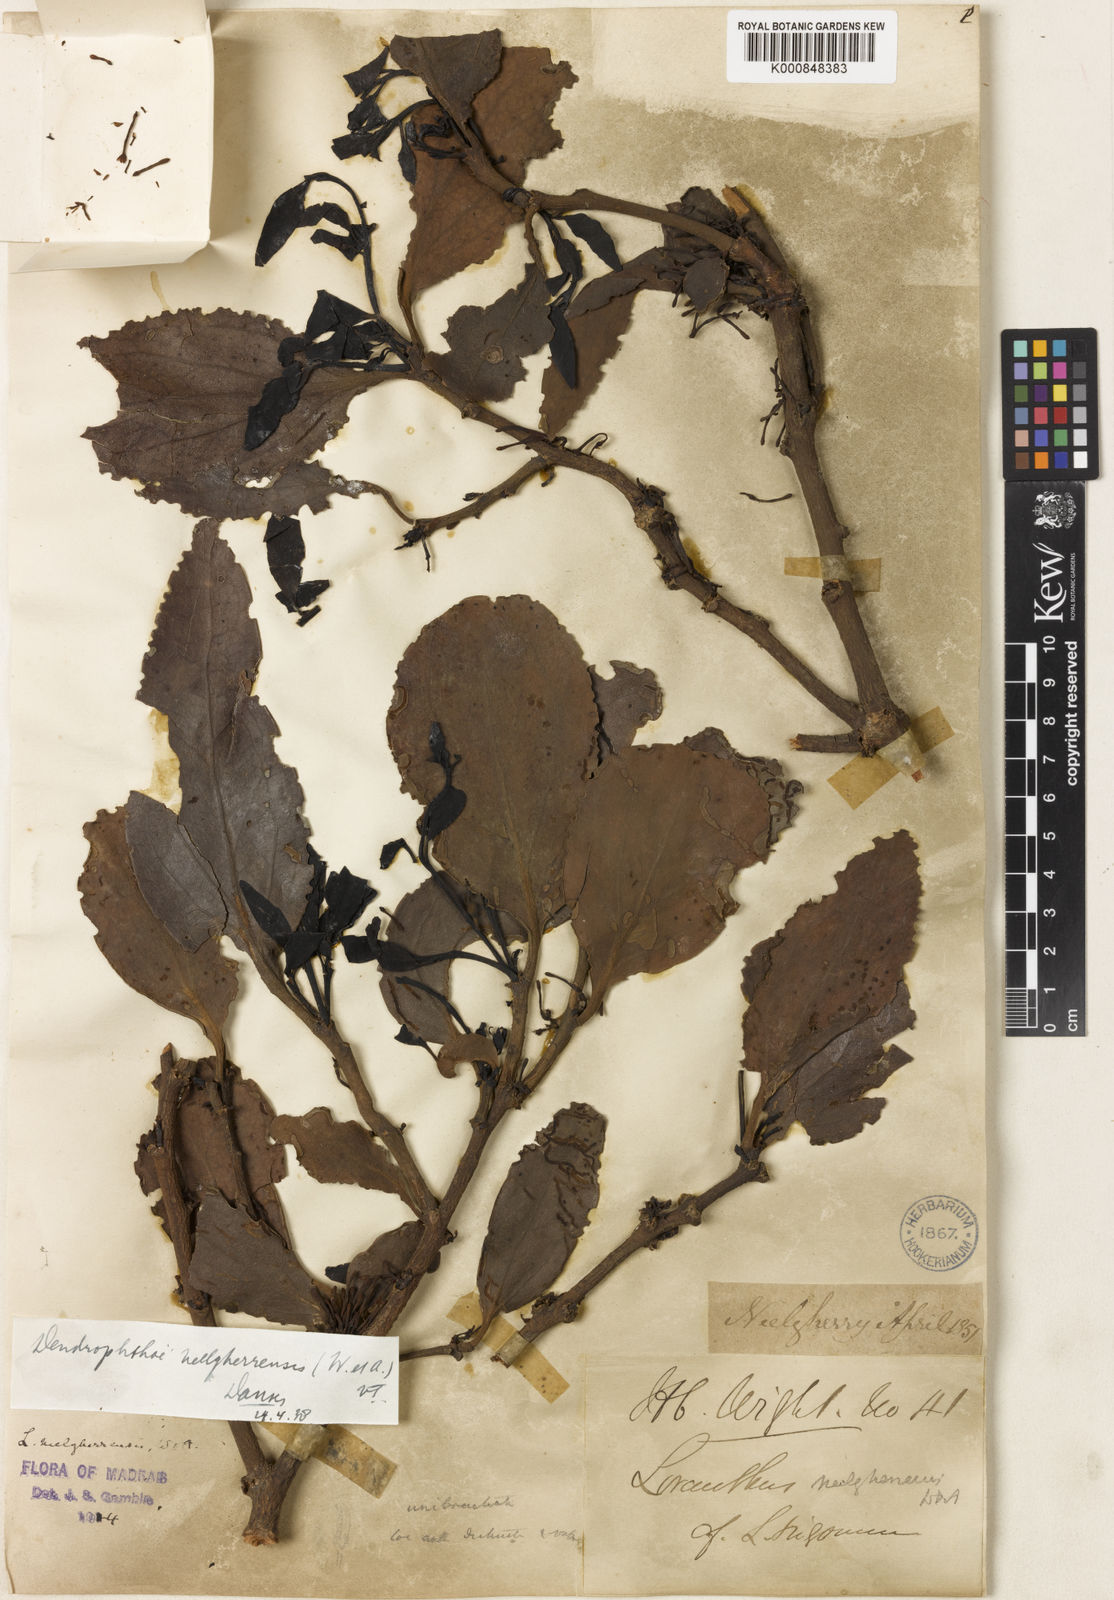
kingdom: Plantae
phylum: Tracheophyta
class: Magnoliopsida
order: Santalales
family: Loranthaceae
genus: Dendrophthoe
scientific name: Dendrophthoe neelgherrensis
